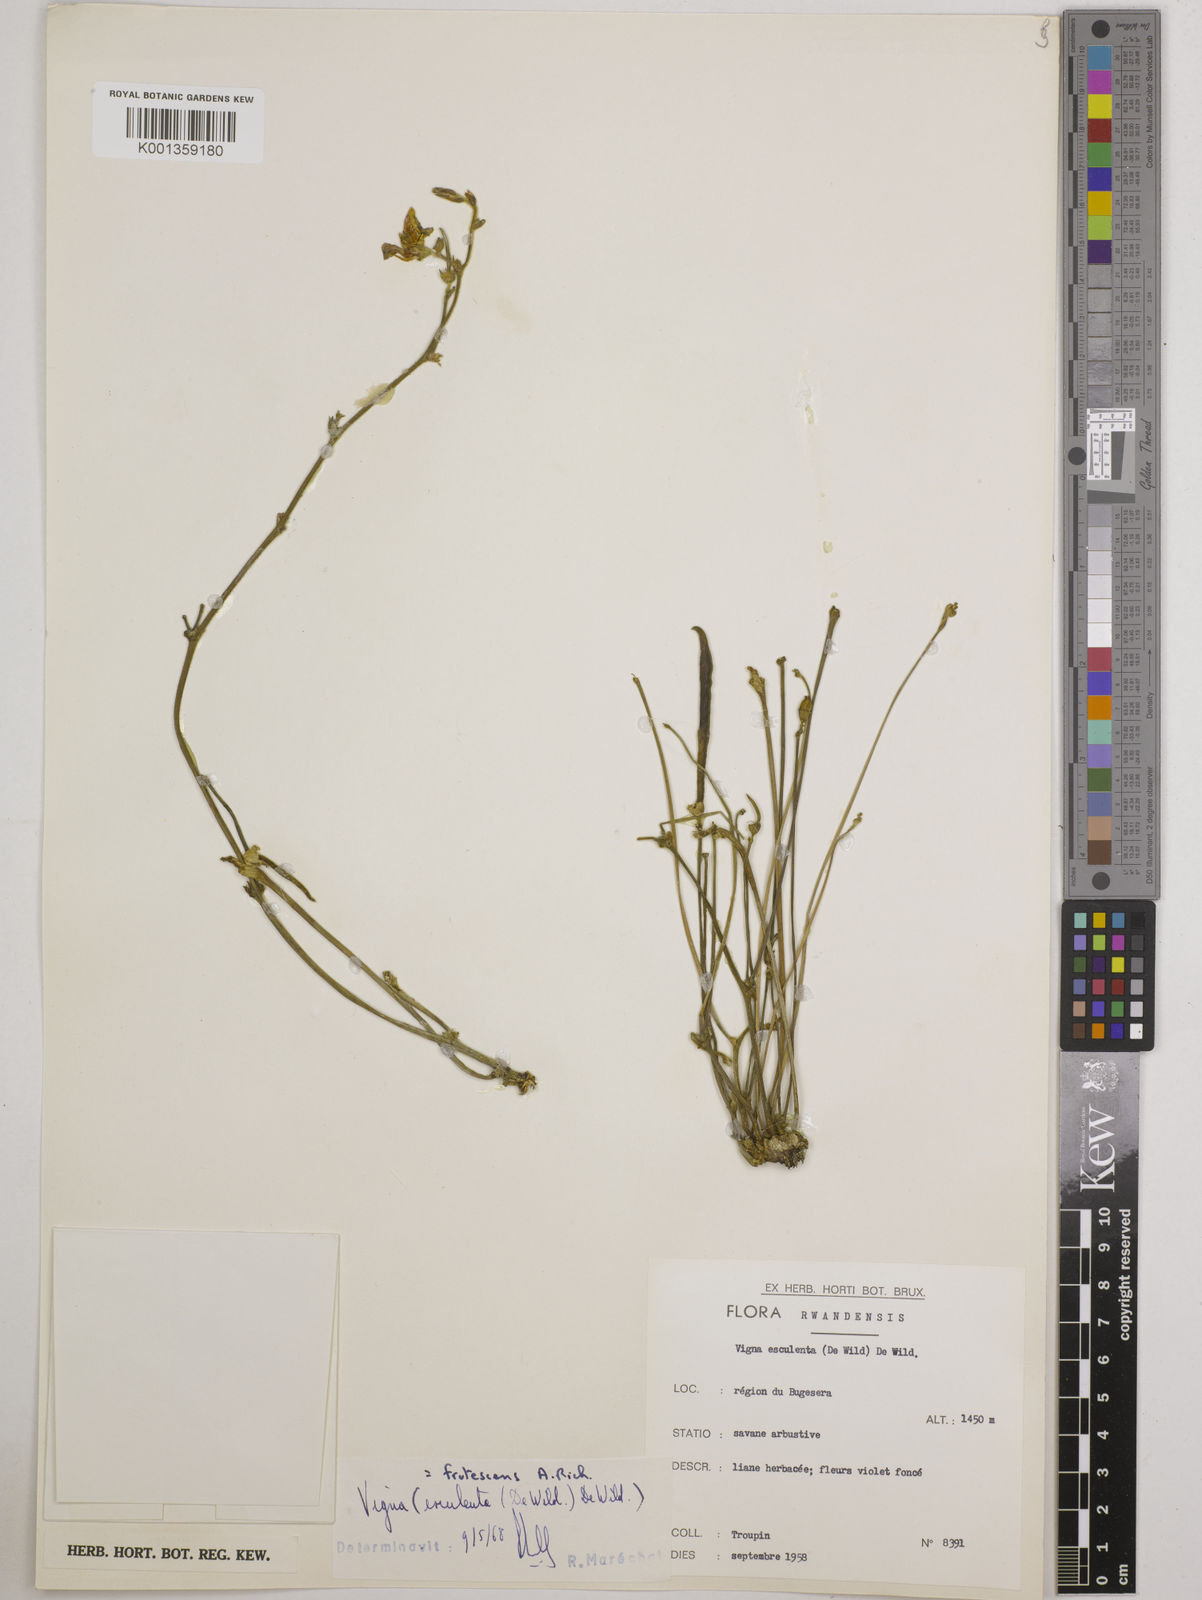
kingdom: Plantae
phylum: Tracheophyta
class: Magnoliopsida
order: Fabales
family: Fabaceae
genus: Vigna
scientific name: Vigna frutescens
